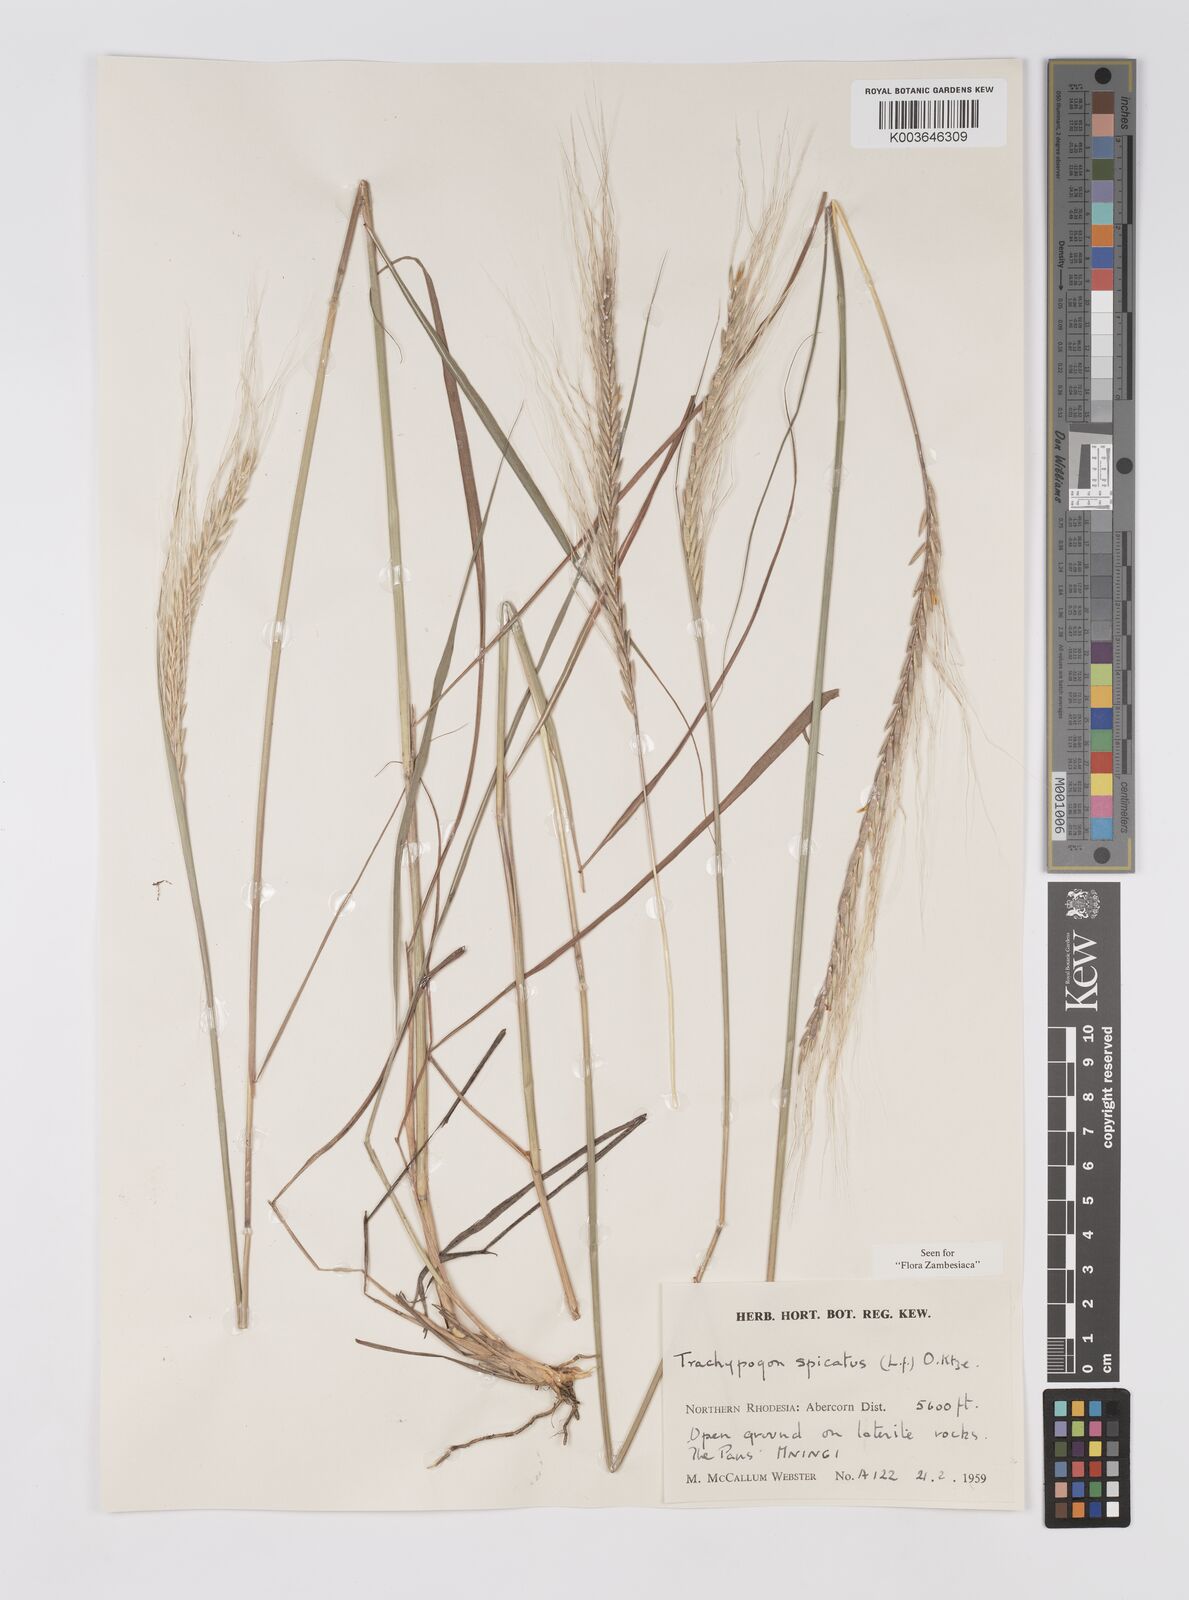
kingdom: Plantae
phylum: Tracheophyta
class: Liliopsida
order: Poales
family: Poaceae
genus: Trachypogon
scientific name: Trachypogon spicatus
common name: Crinkle-awn
